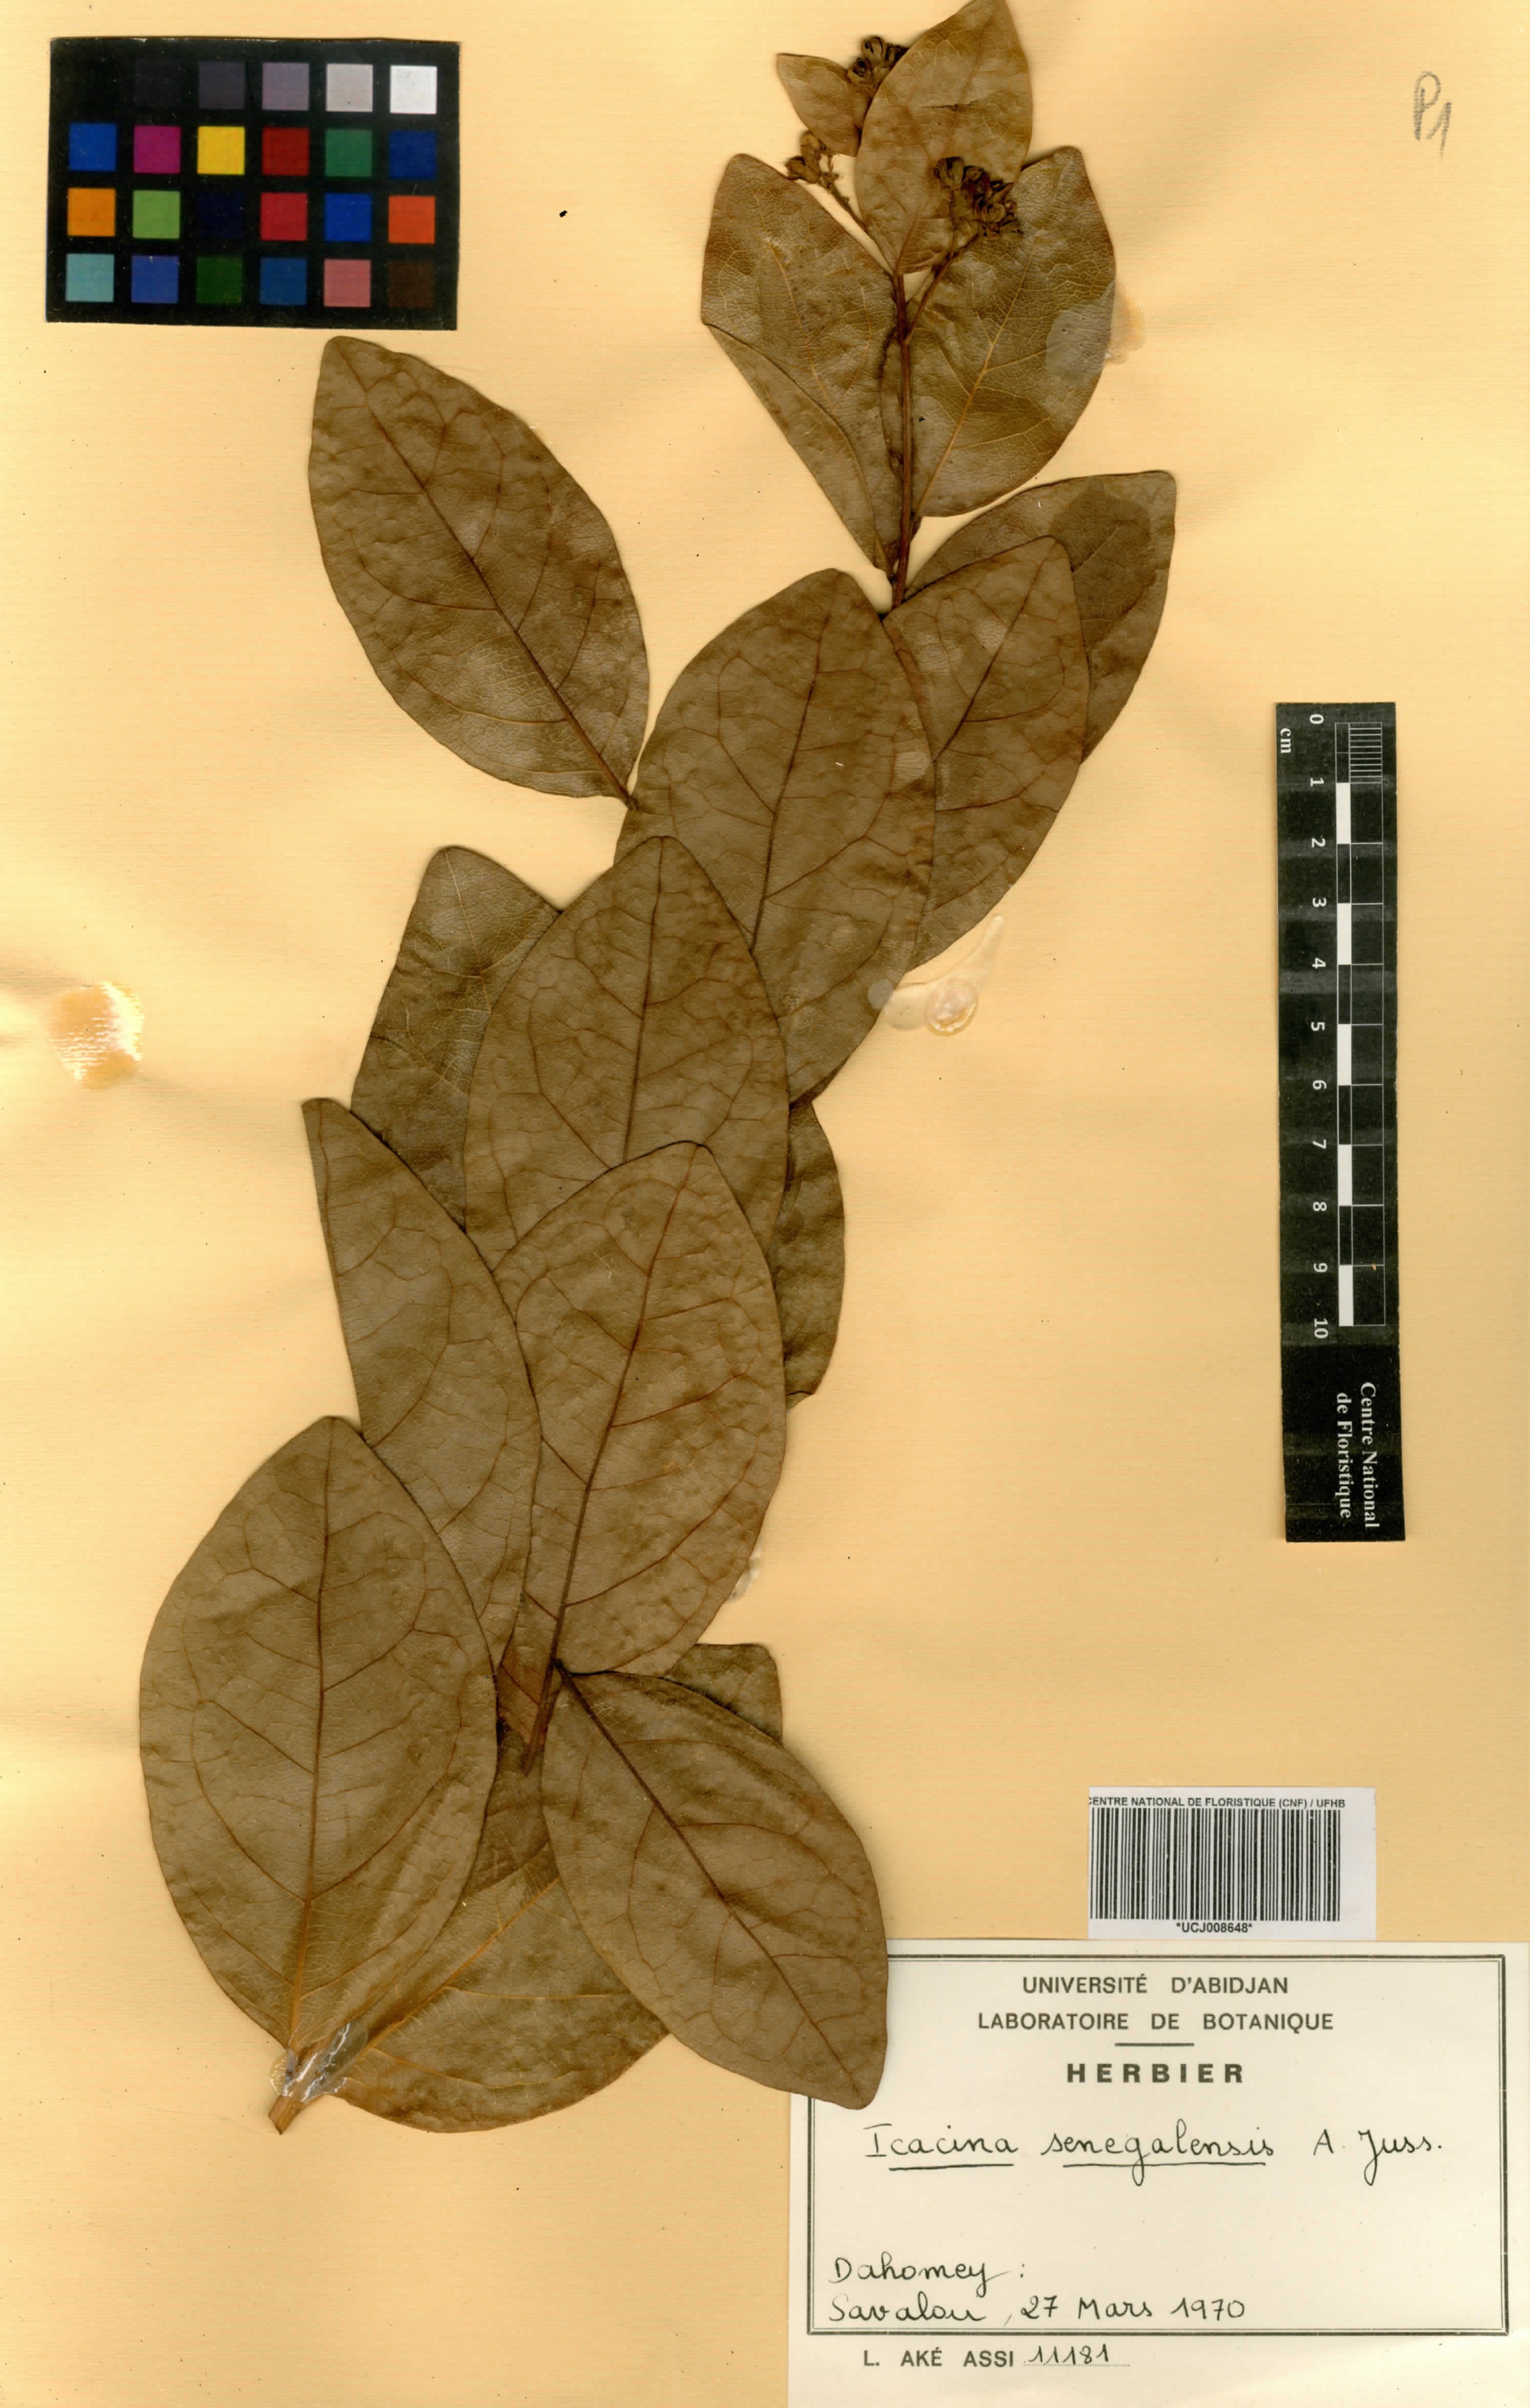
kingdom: Plantae
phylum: Tracheophyta
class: Magnoliopsida
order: Icacinales
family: Icacinaceae
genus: Icacina
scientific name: Icacina oliviformis
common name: False yam
